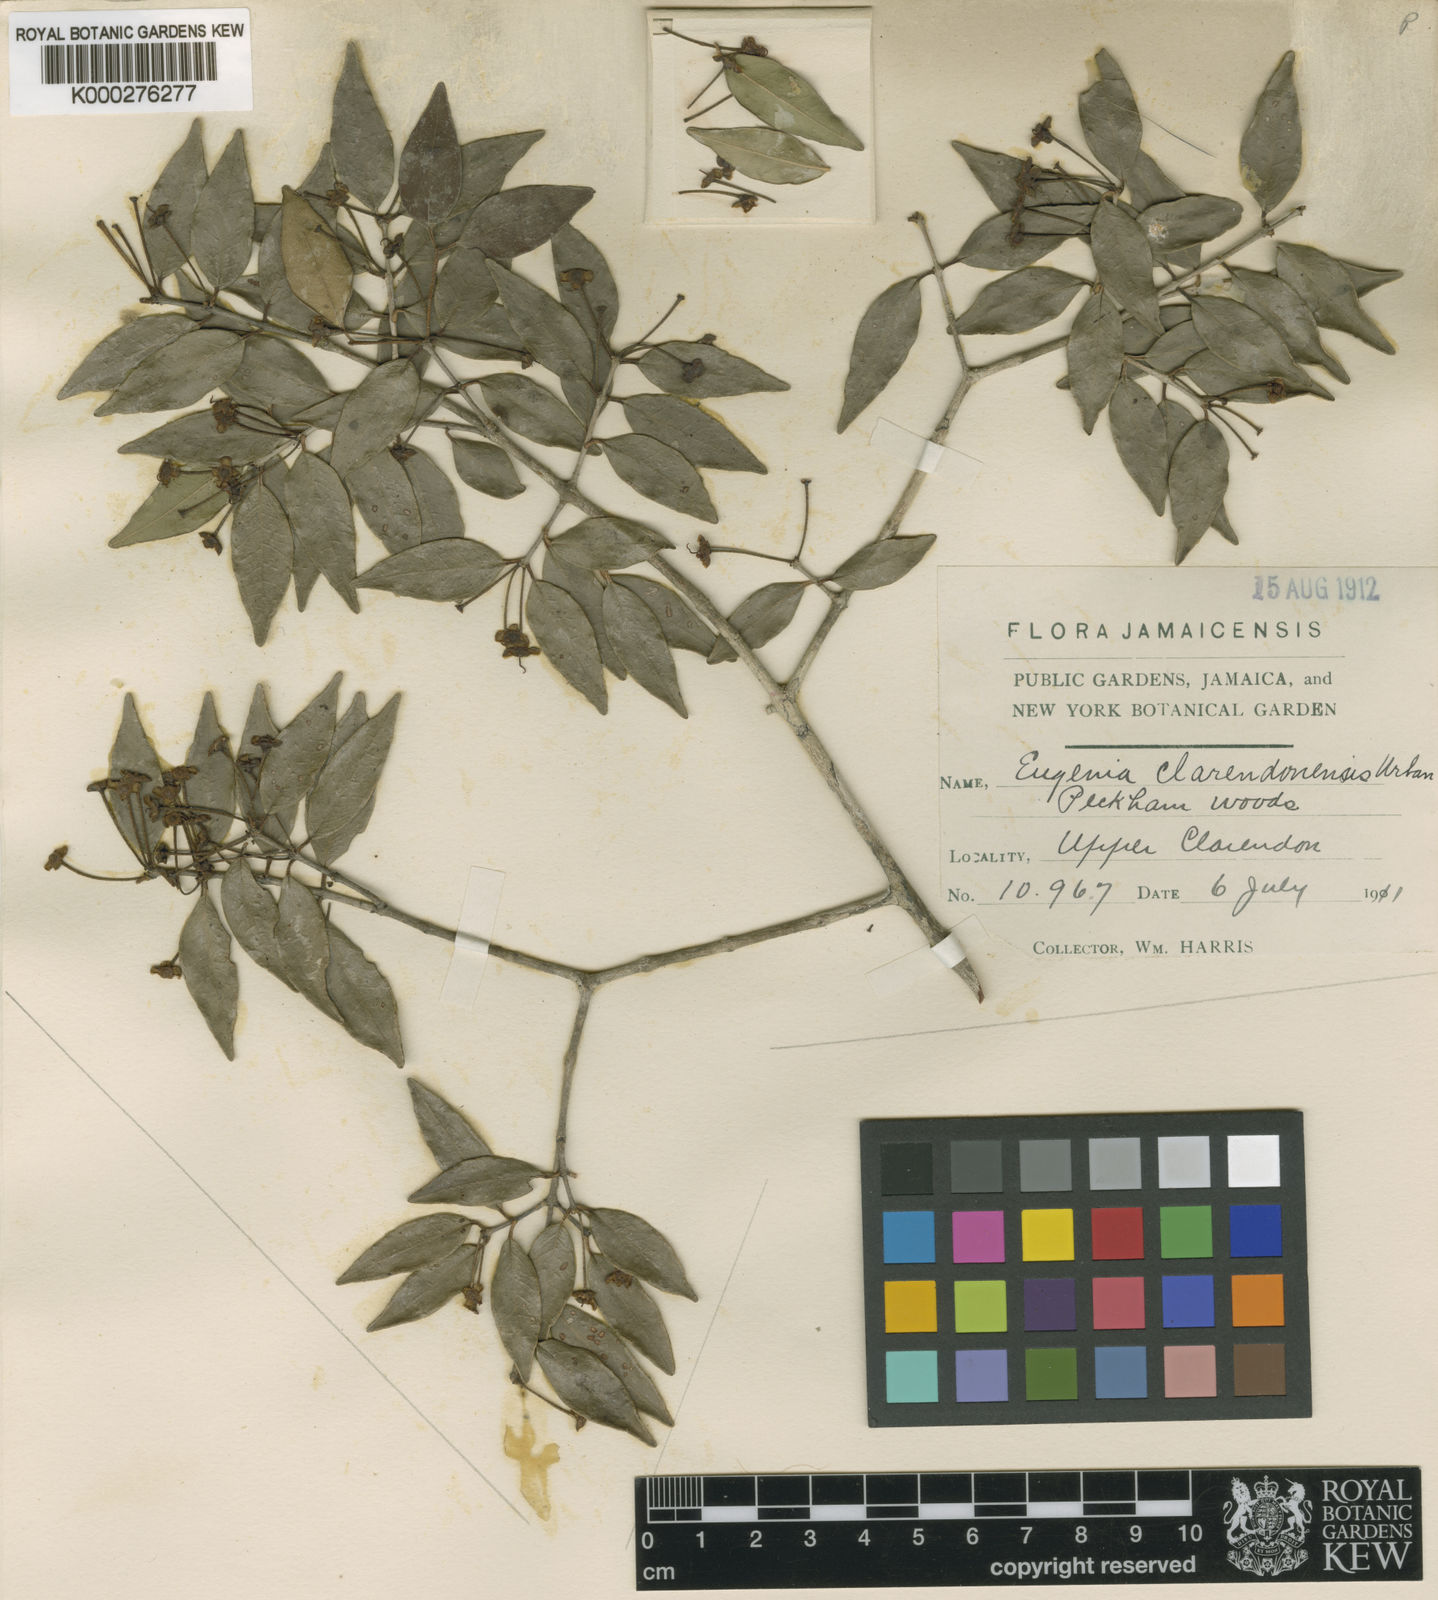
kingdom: Plantae
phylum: Tracheophyta
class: Magnoliopsida
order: Myrtales
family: Myrtaceae
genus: Eugenia
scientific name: Eugenia clarendonensis
